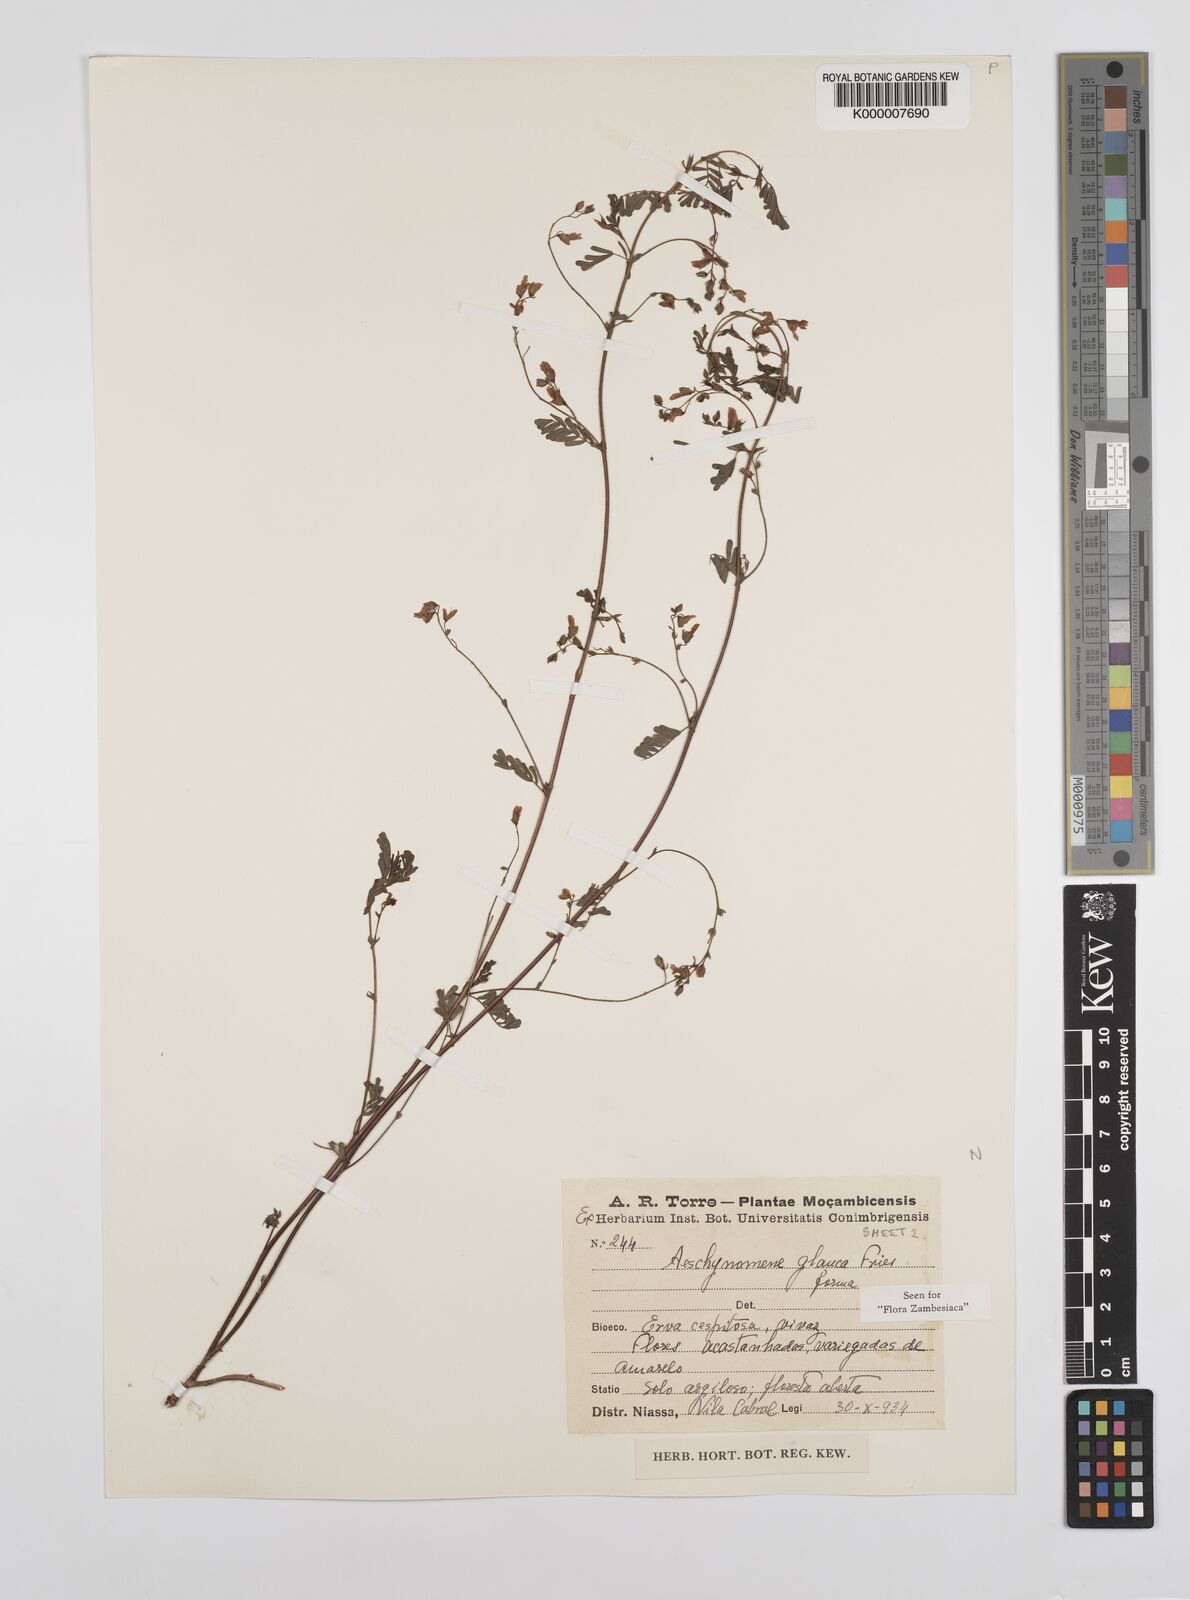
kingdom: Plantae
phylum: Tracheophyta
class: Magnoliopsida
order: Fabales
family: Fabaceae
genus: Aeschynomene
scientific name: Aeschynomene glauca
